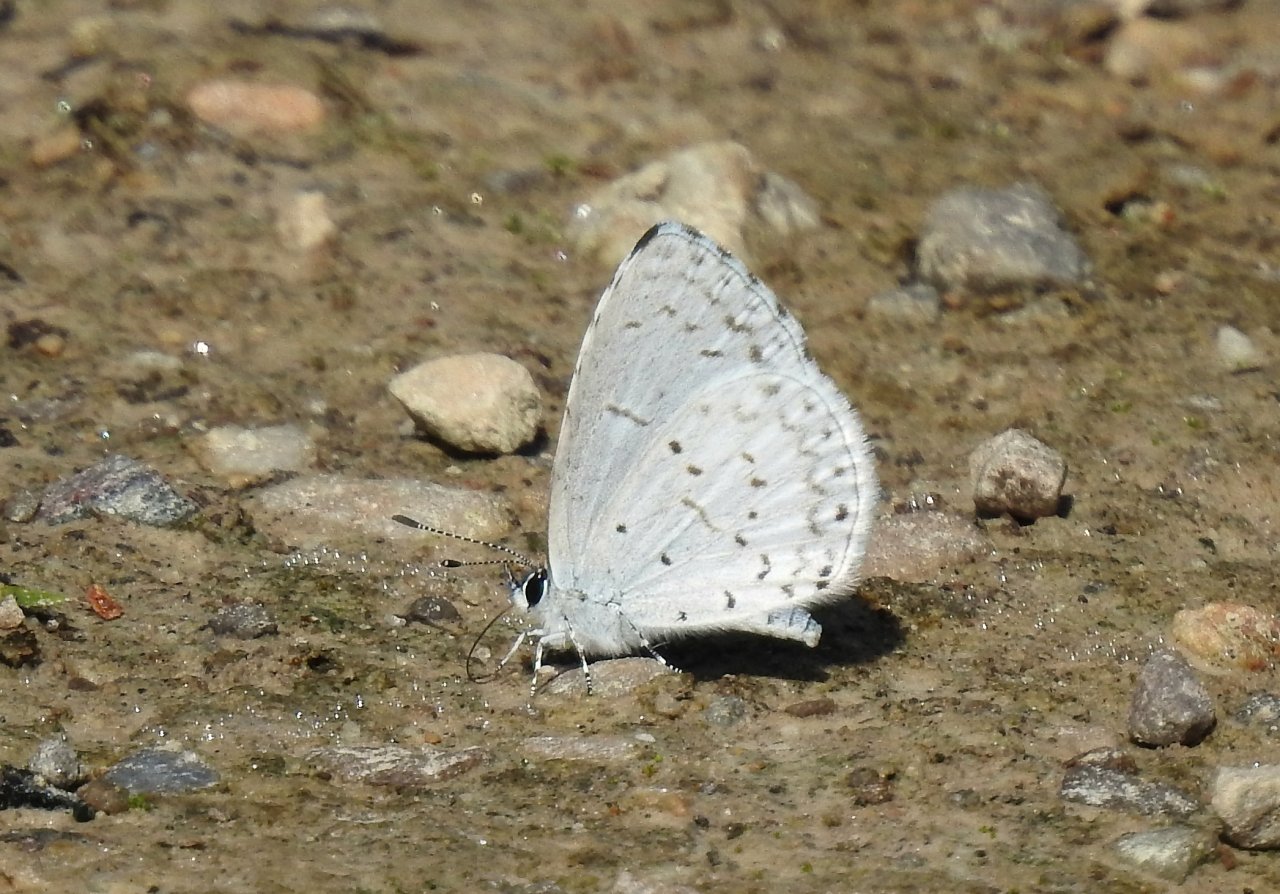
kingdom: Animalia
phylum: Arthropoda
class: Insecta
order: Lepidoptera
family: Lycaenidae
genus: Celastrina
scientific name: Celastrina
